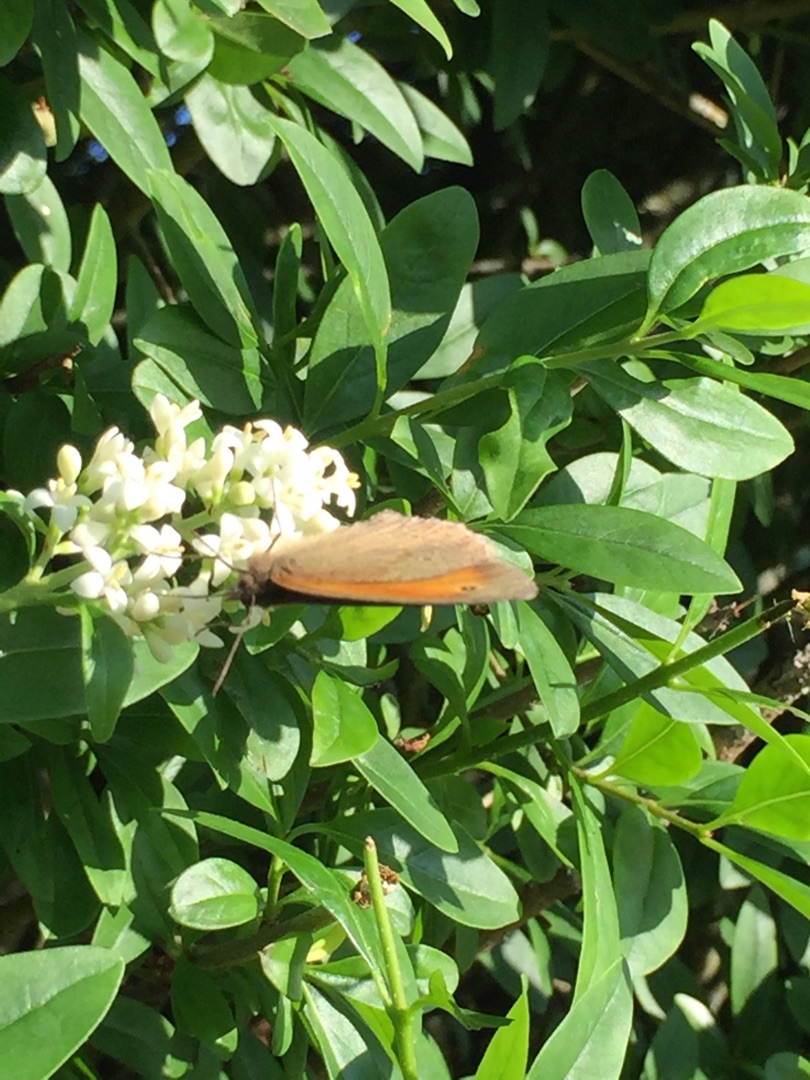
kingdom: Animalia
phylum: Arthropoda
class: Insecta
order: Lepidoptera
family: Nymphalidae
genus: Maniola
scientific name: Maniola jurtina
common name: Græsrandøje
